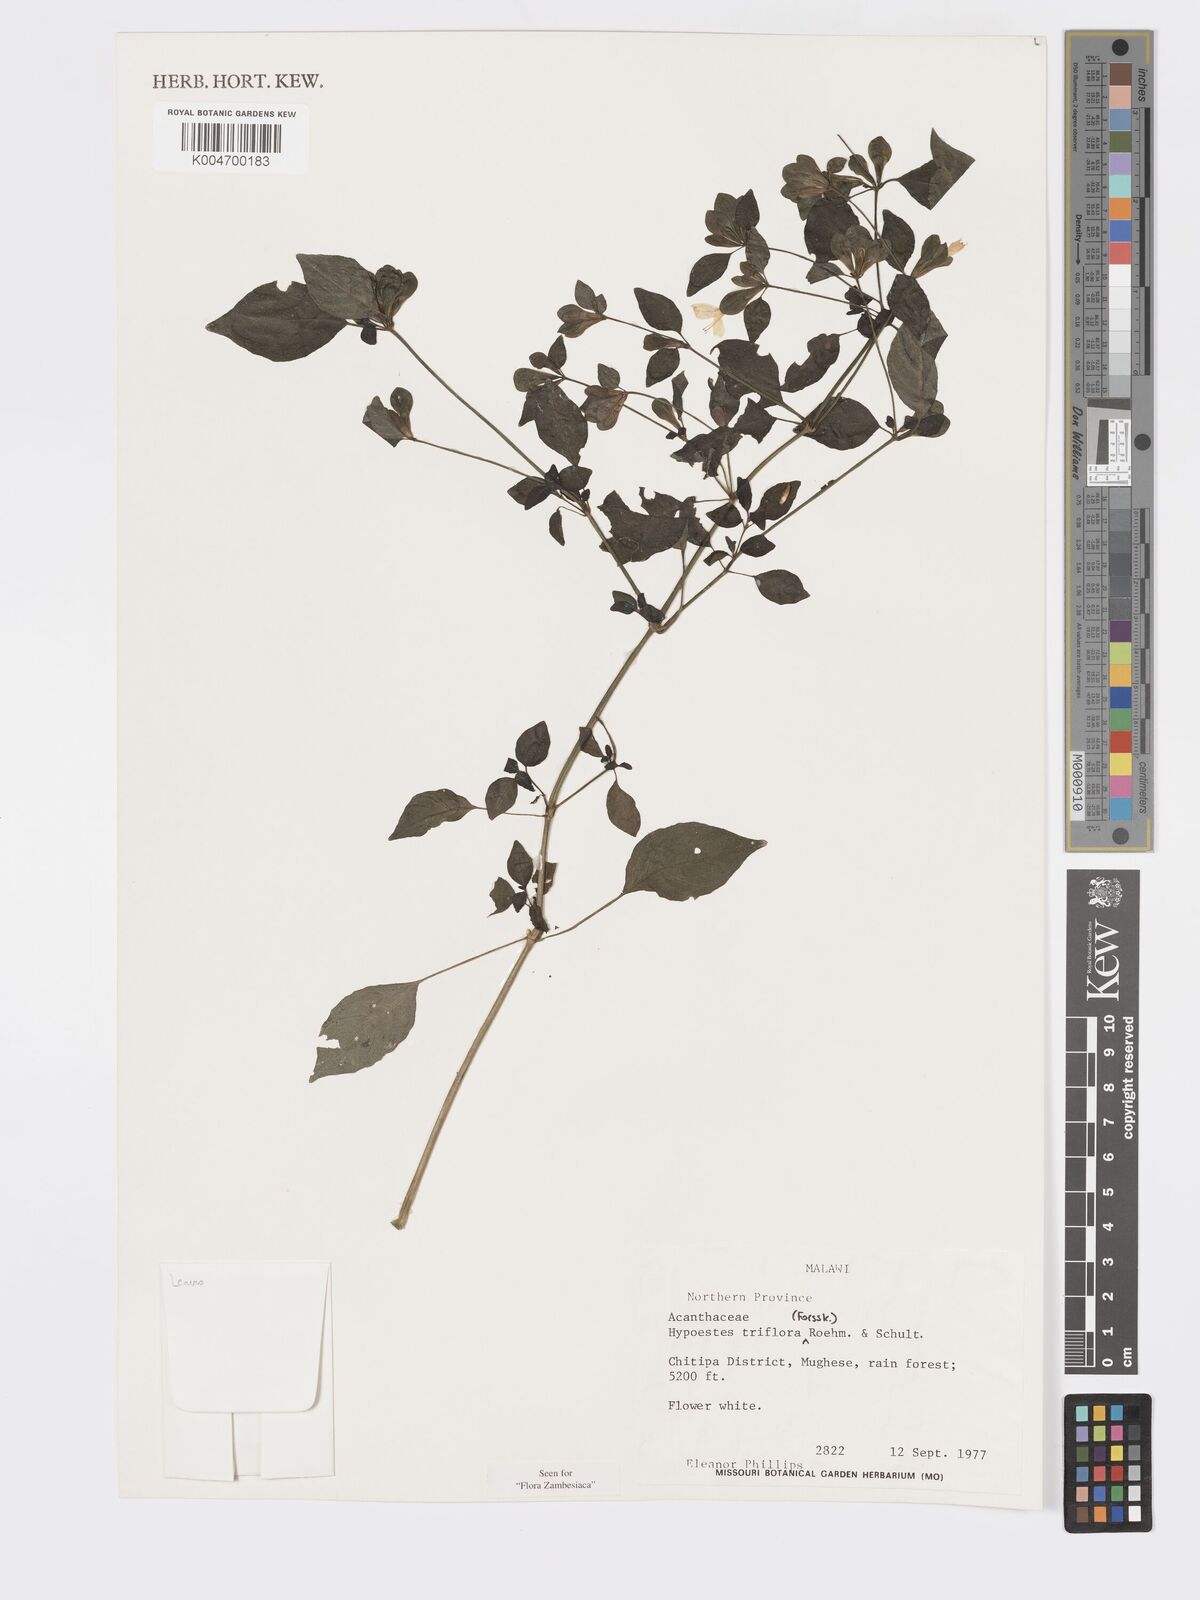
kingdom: Plantae
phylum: Tracheophyta
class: Magnoliopsida
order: Lamiales
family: Acanthaceae
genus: Hypoestes
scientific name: Hypoestes triflora
